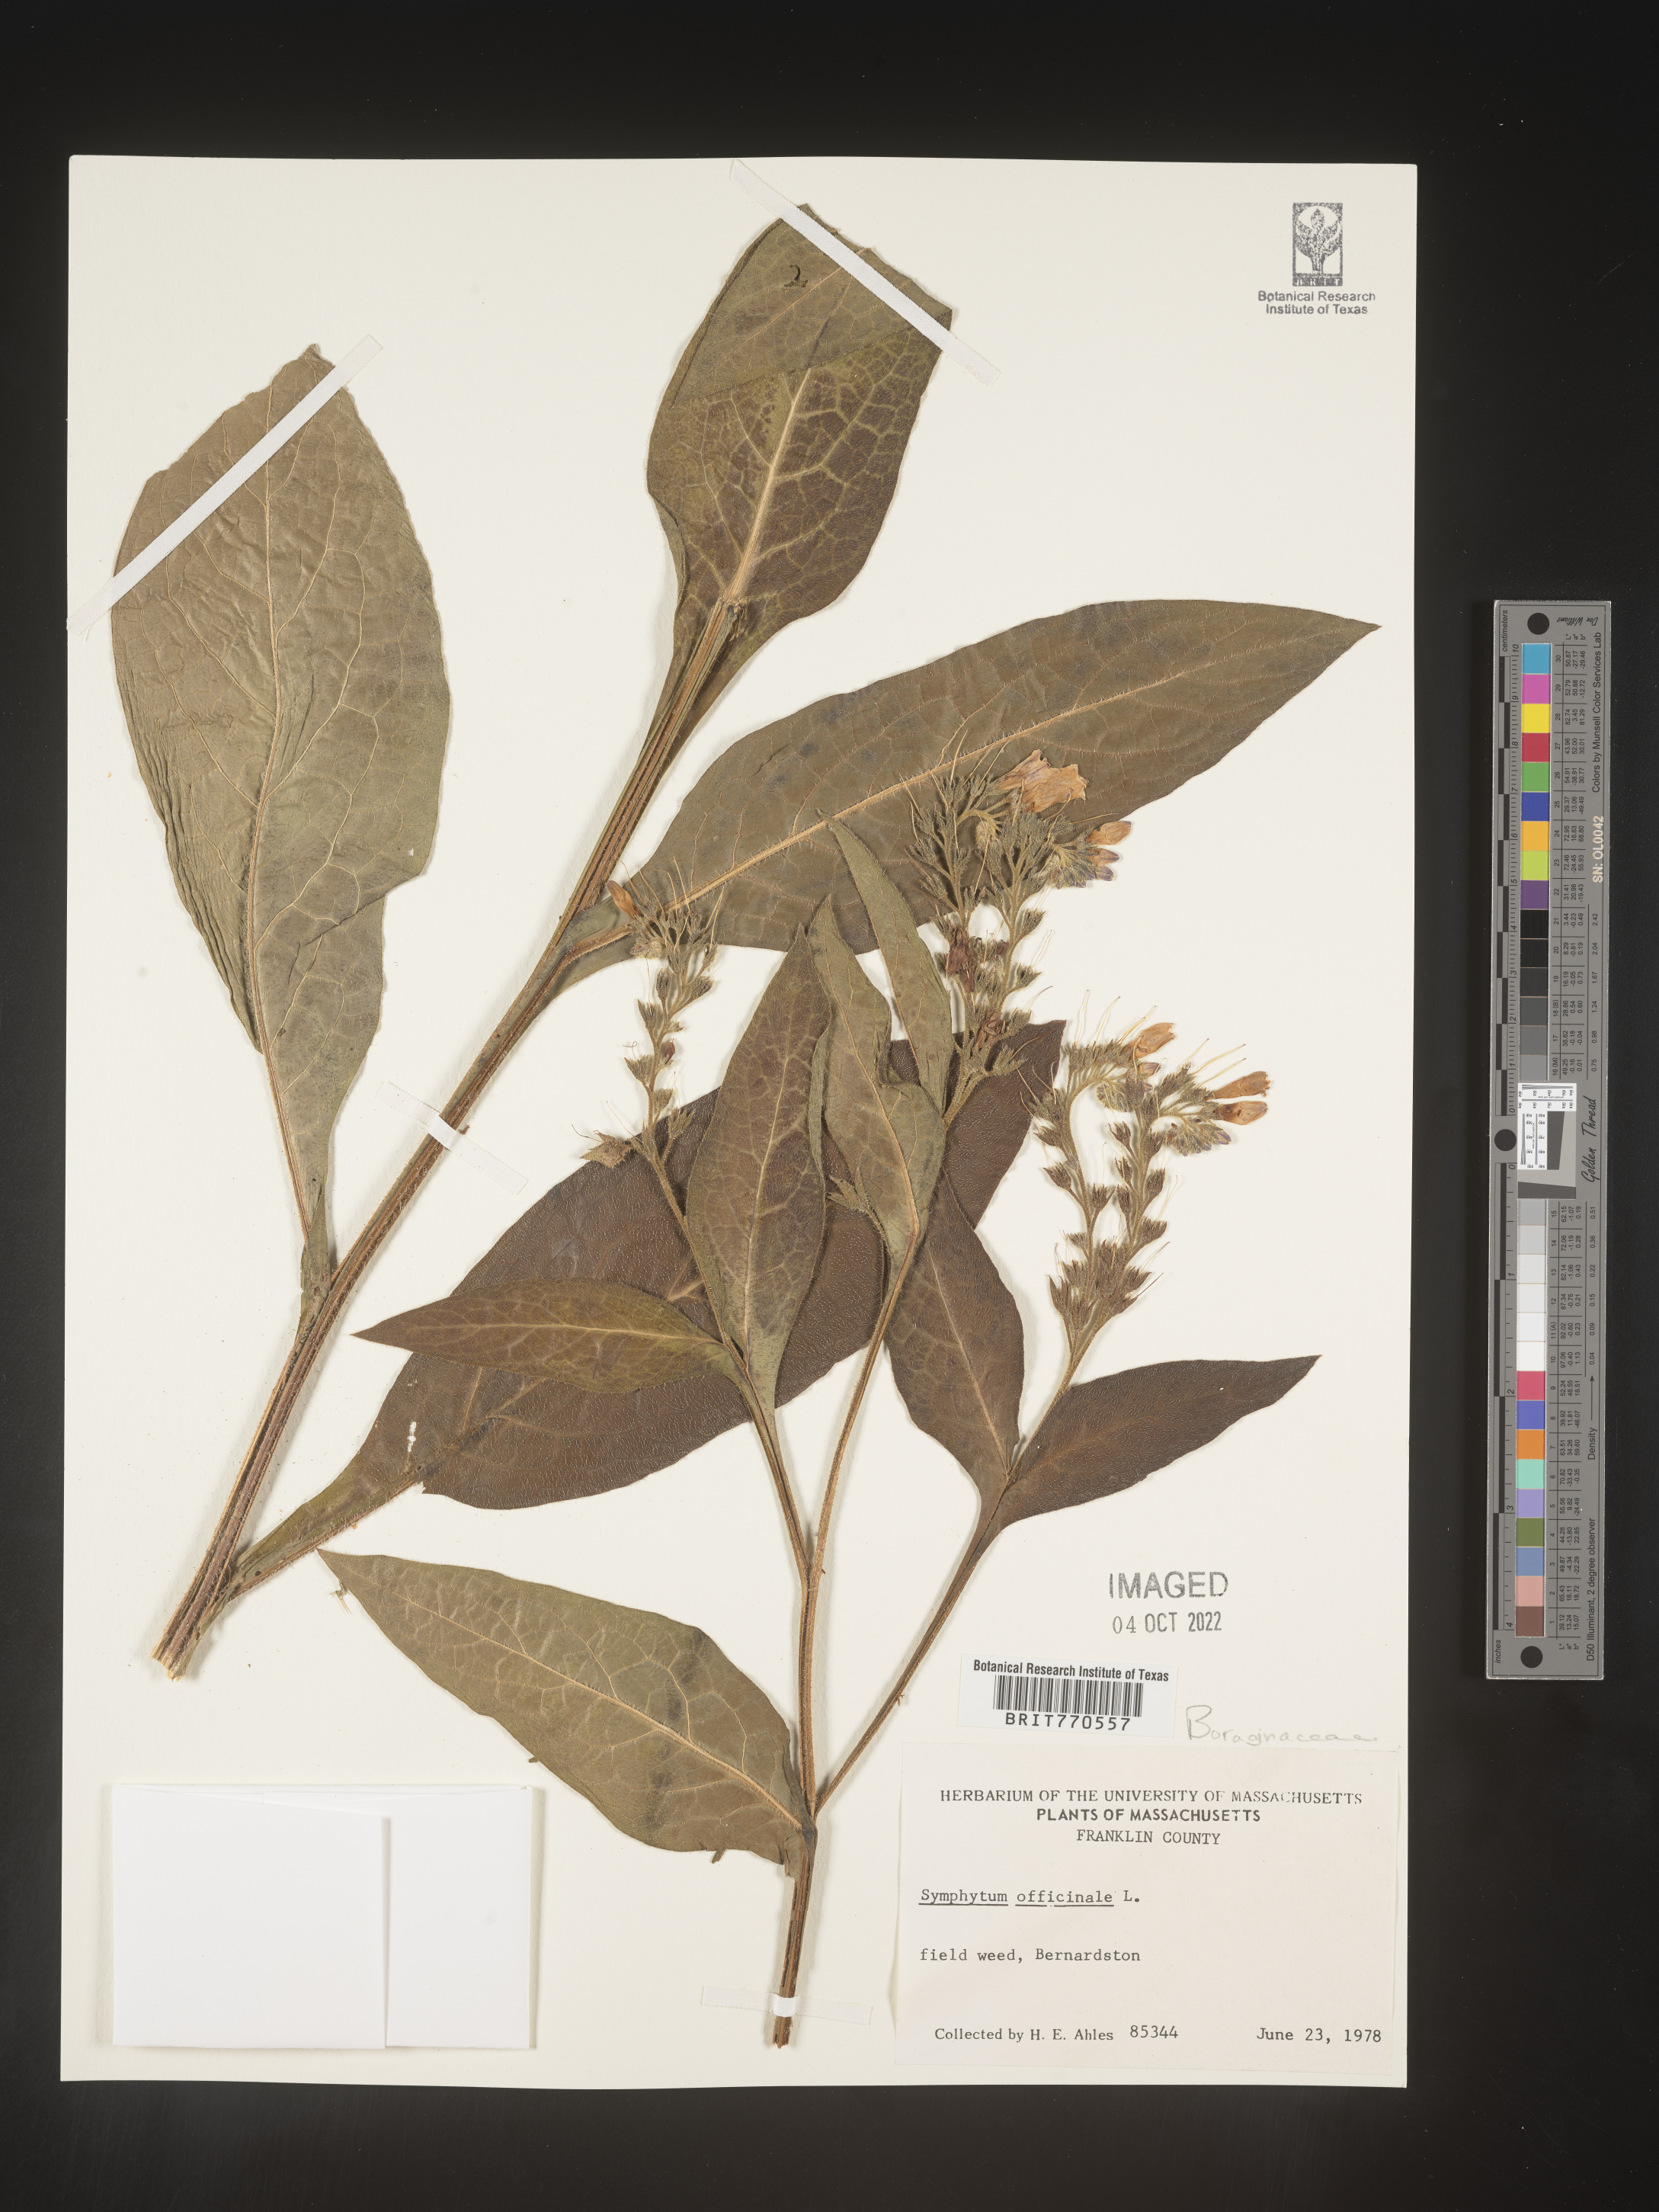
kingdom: Plantae
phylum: Tracheophyta
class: Magnoliopsida
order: Boraginales
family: Boraginaceae
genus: Symphytum
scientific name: Symphytum
